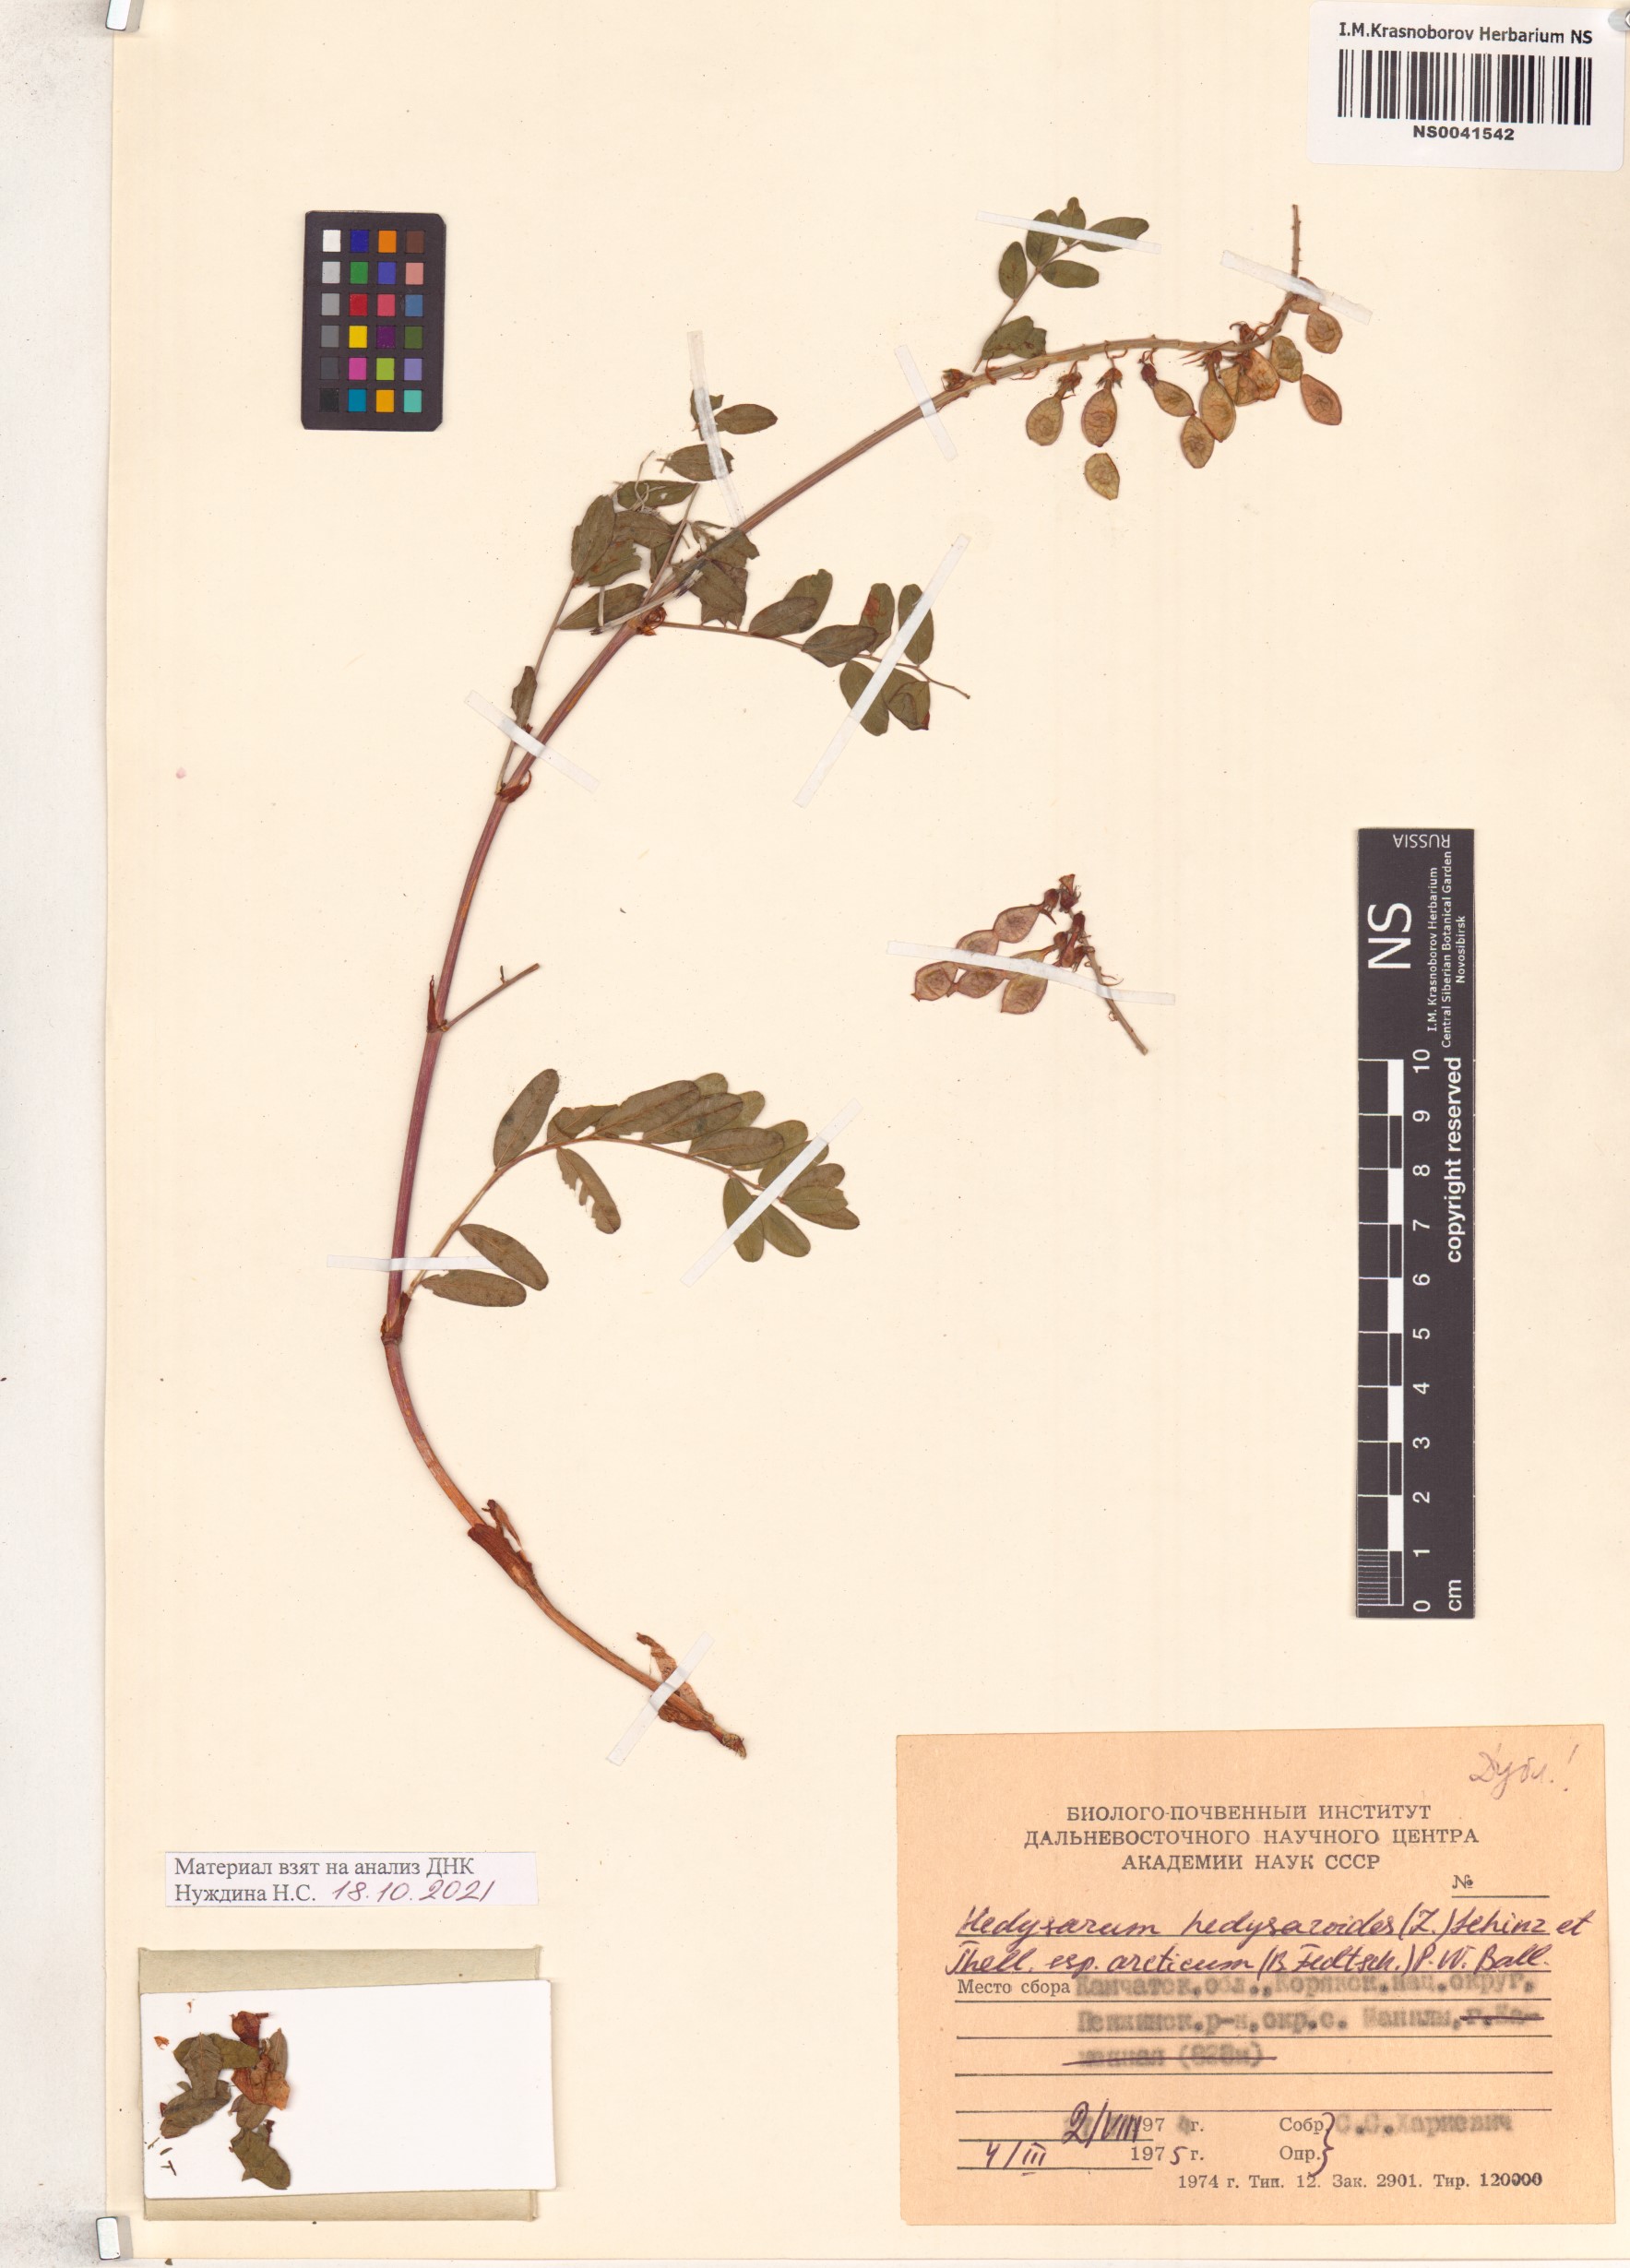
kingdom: Plantae
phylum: Tracheophyta
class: Magnoliopsida
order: Fabales
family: Fabaceae
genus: Hedysarum
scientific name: Hedysarum hedysaroides
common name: Alpine french-honeysuckle
